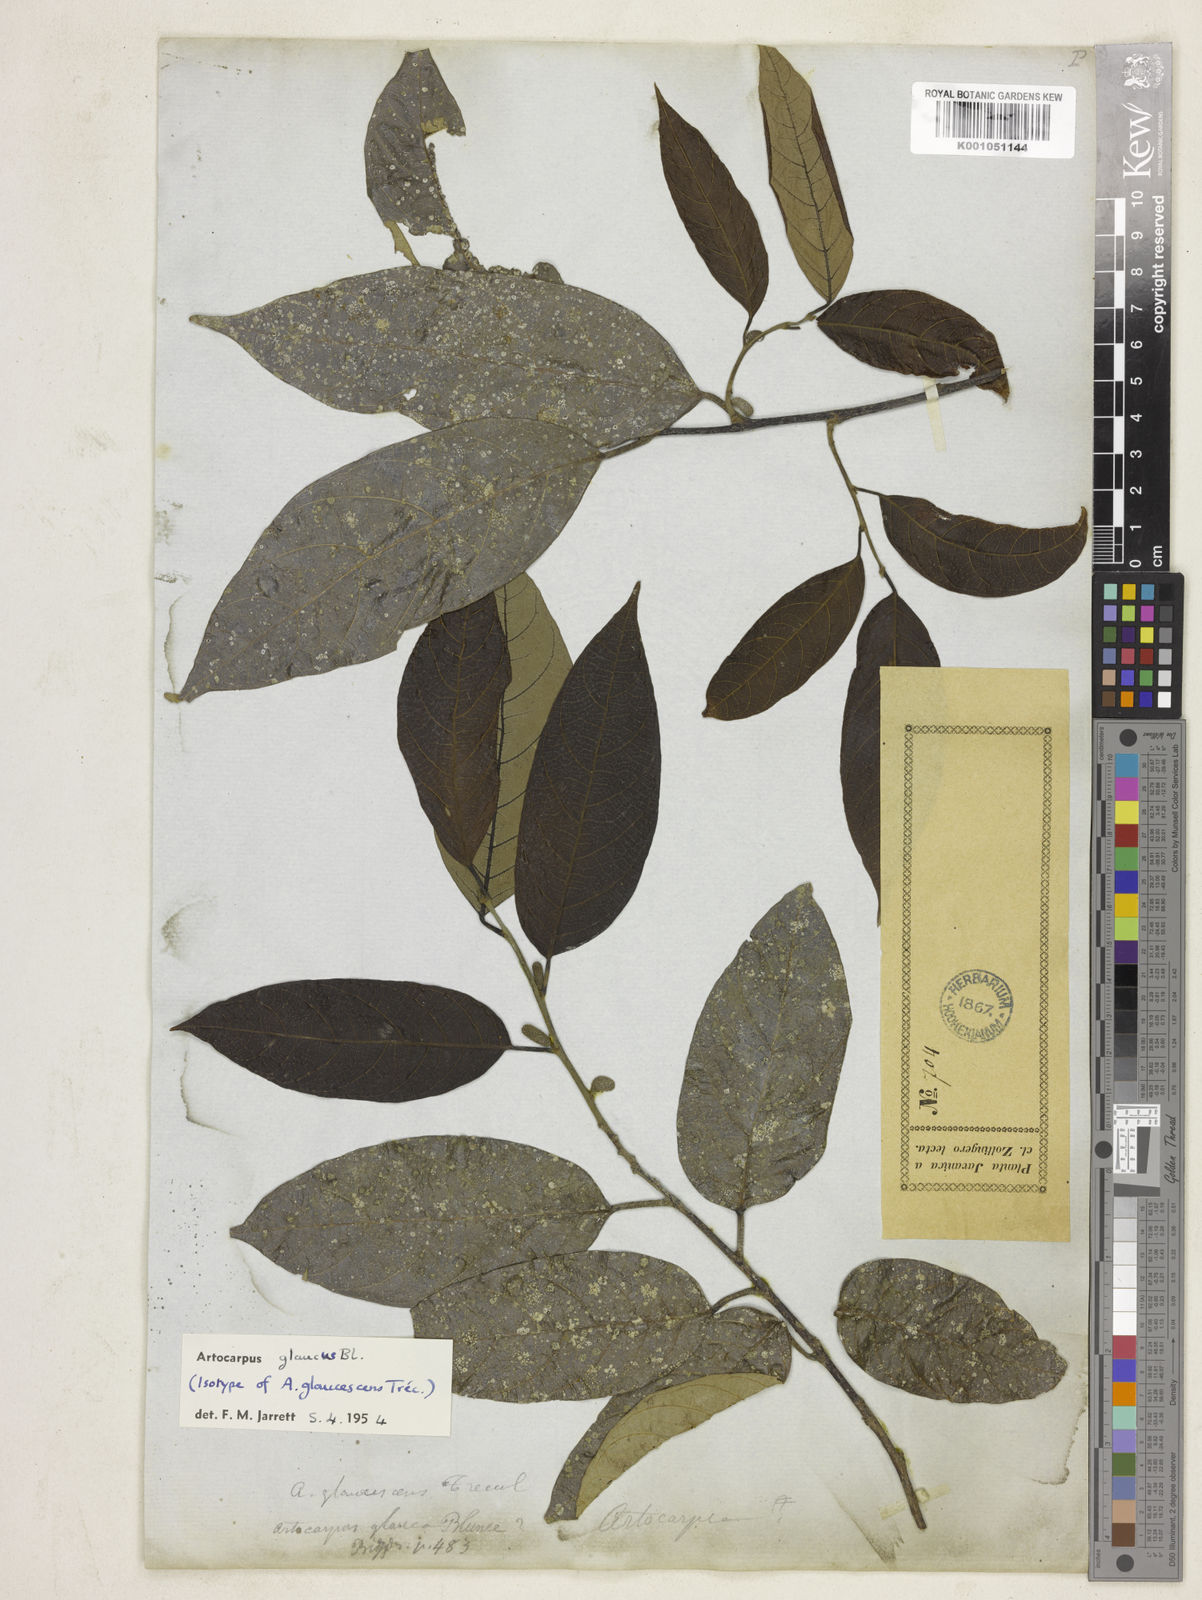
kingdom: Plantae
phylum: Tracheophyta
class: Magnoliopsida
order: Rosales
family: Moraceae
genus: Artocarpus
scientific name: Artocarpus glaucus
